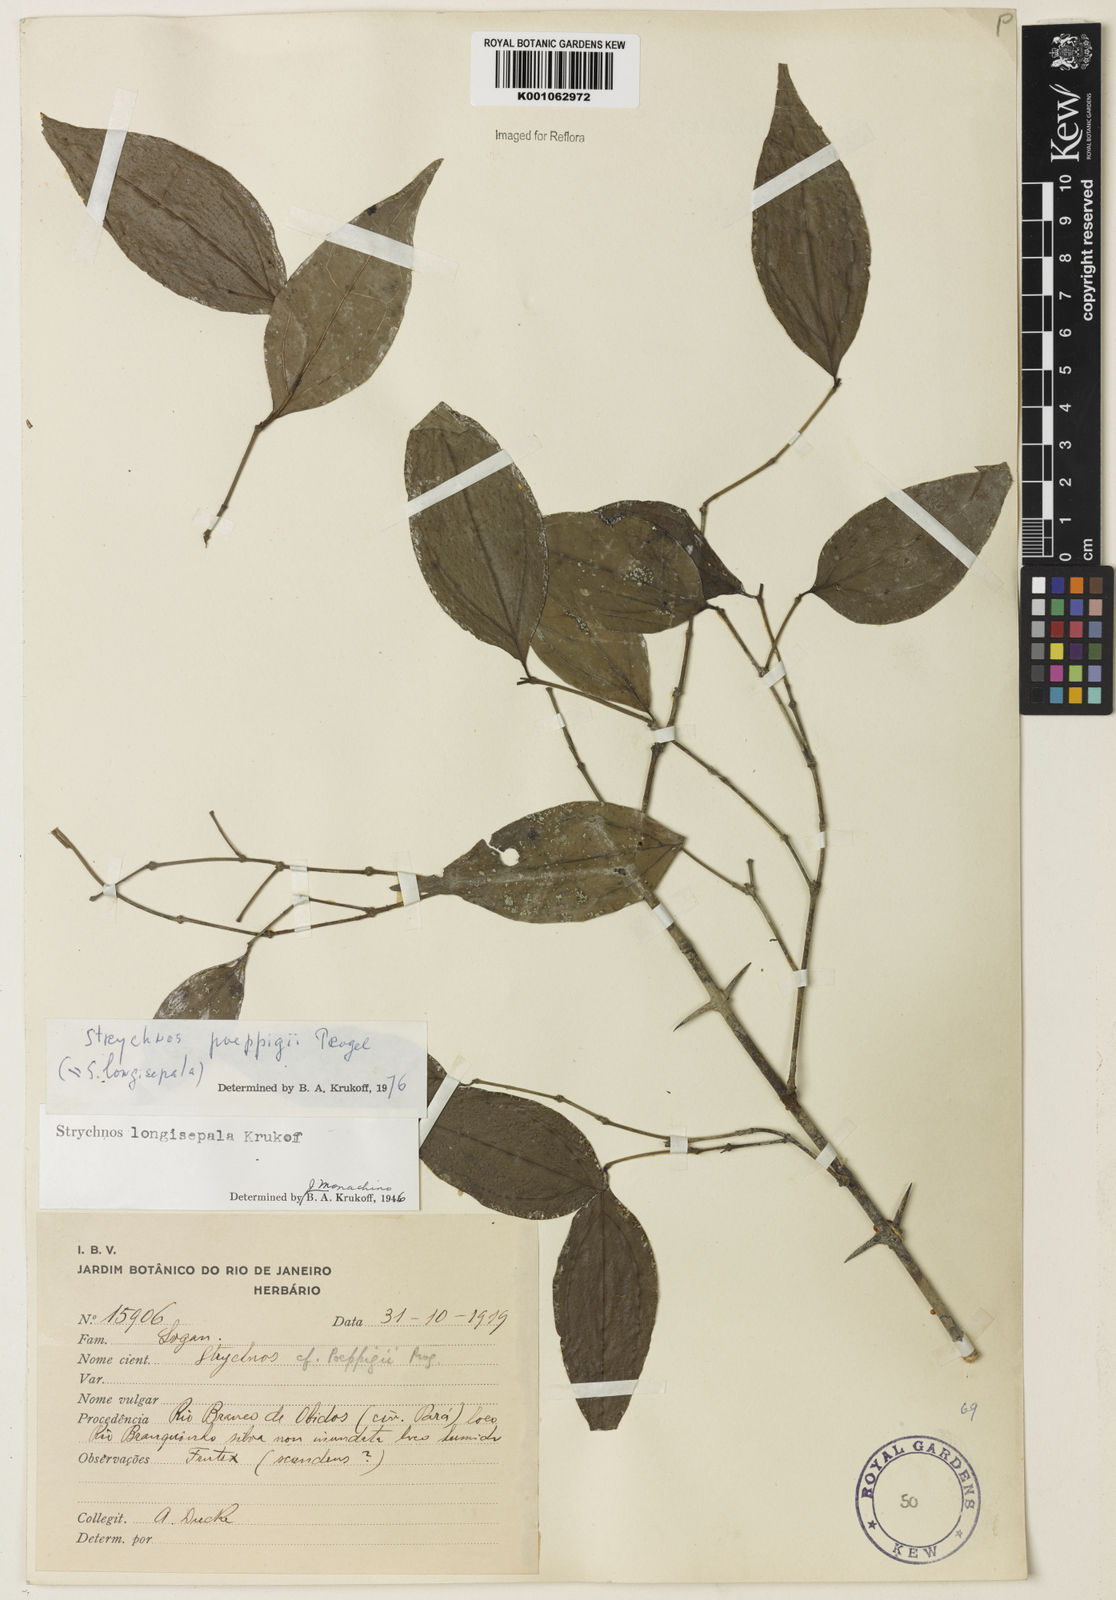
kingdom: Plantae
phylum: Tracheophyta
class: Magnoliopsida
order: Gentianales
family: Loganiaceae
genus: Strychnos
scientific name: Strychnos poeppigii
